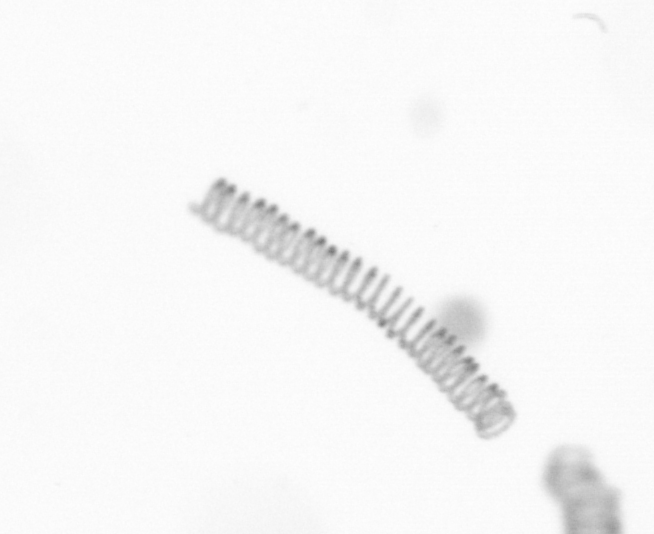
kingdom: Chromista
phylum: Ochrophyta
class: Bacillariophyceae
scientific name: Bacillariophyceae
